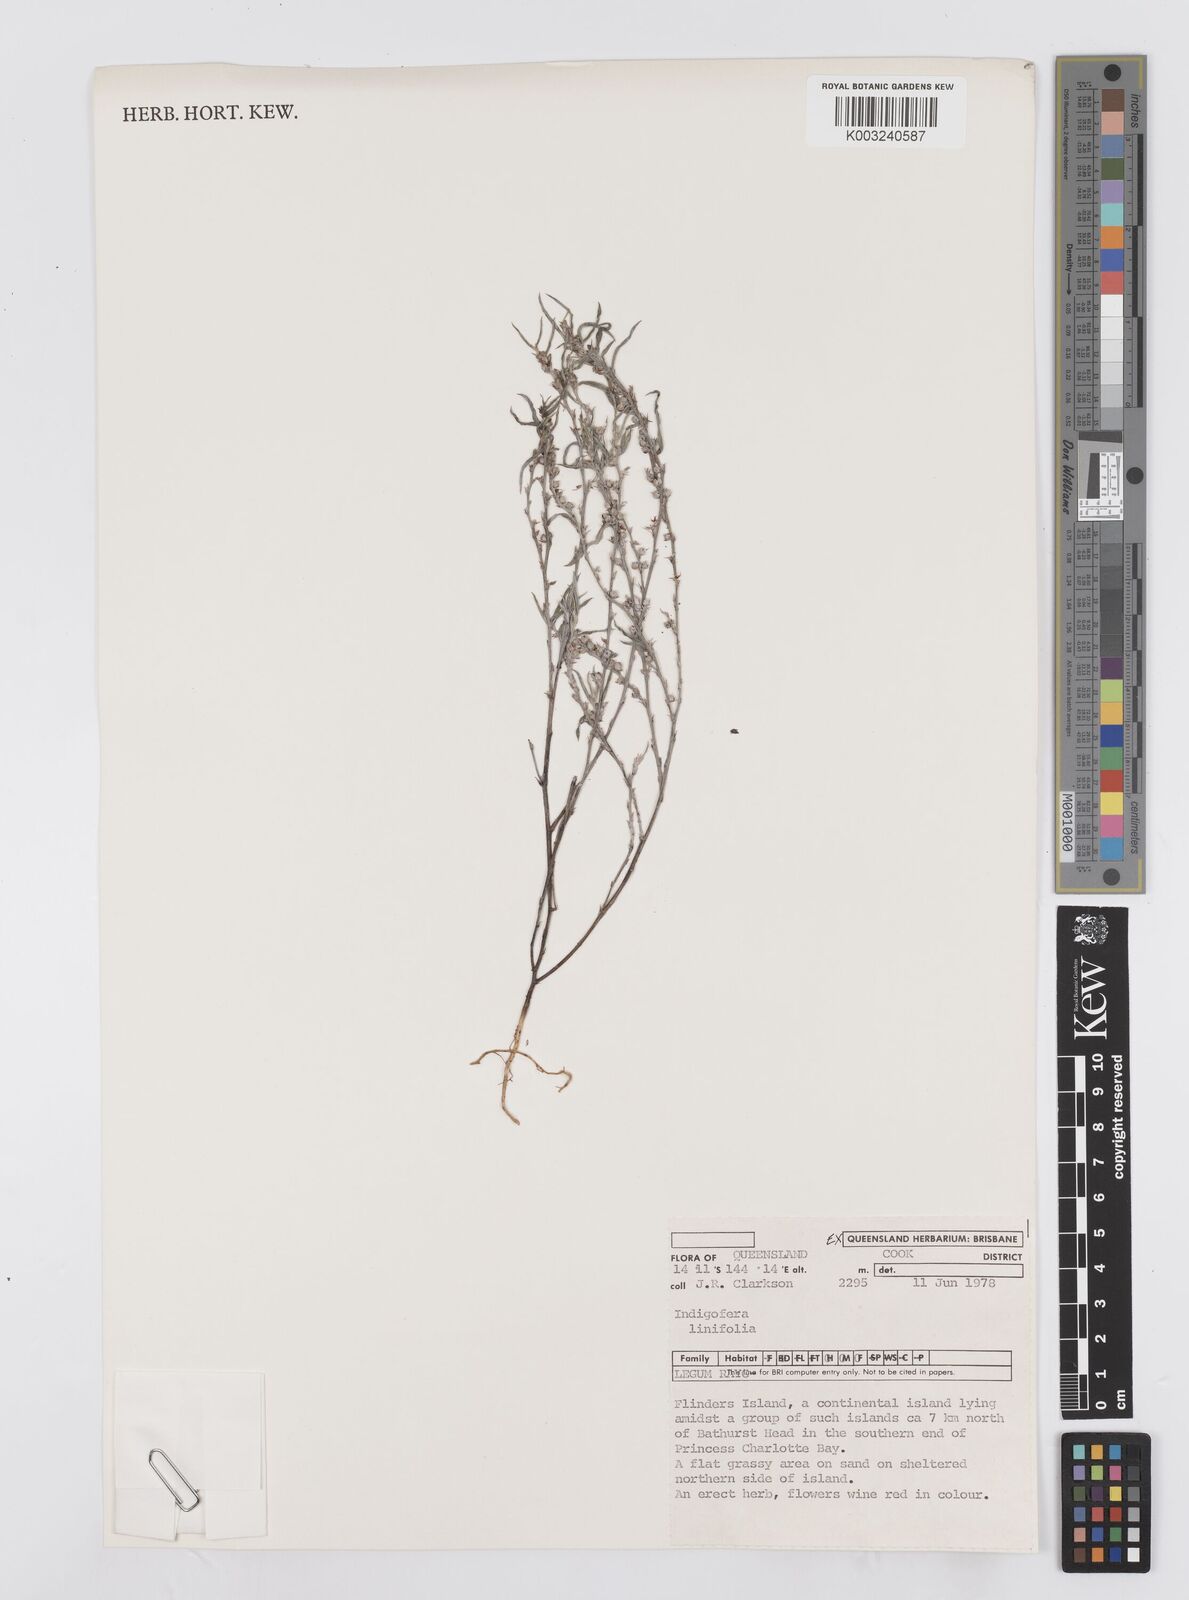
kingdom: Plantae
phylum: Tracheophyta
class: Magnoliopsida
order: Fabales
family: Fabaceae
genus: Indigofera
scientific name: Indigofera linifolia
